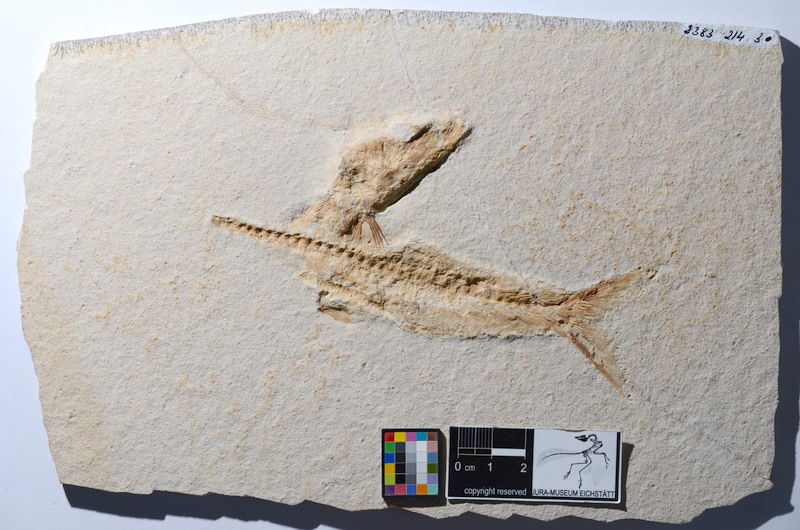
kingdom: Animalia
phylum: Chordata
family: Ascalaboidae
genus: Tharsis
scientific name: Tharsis dubius
